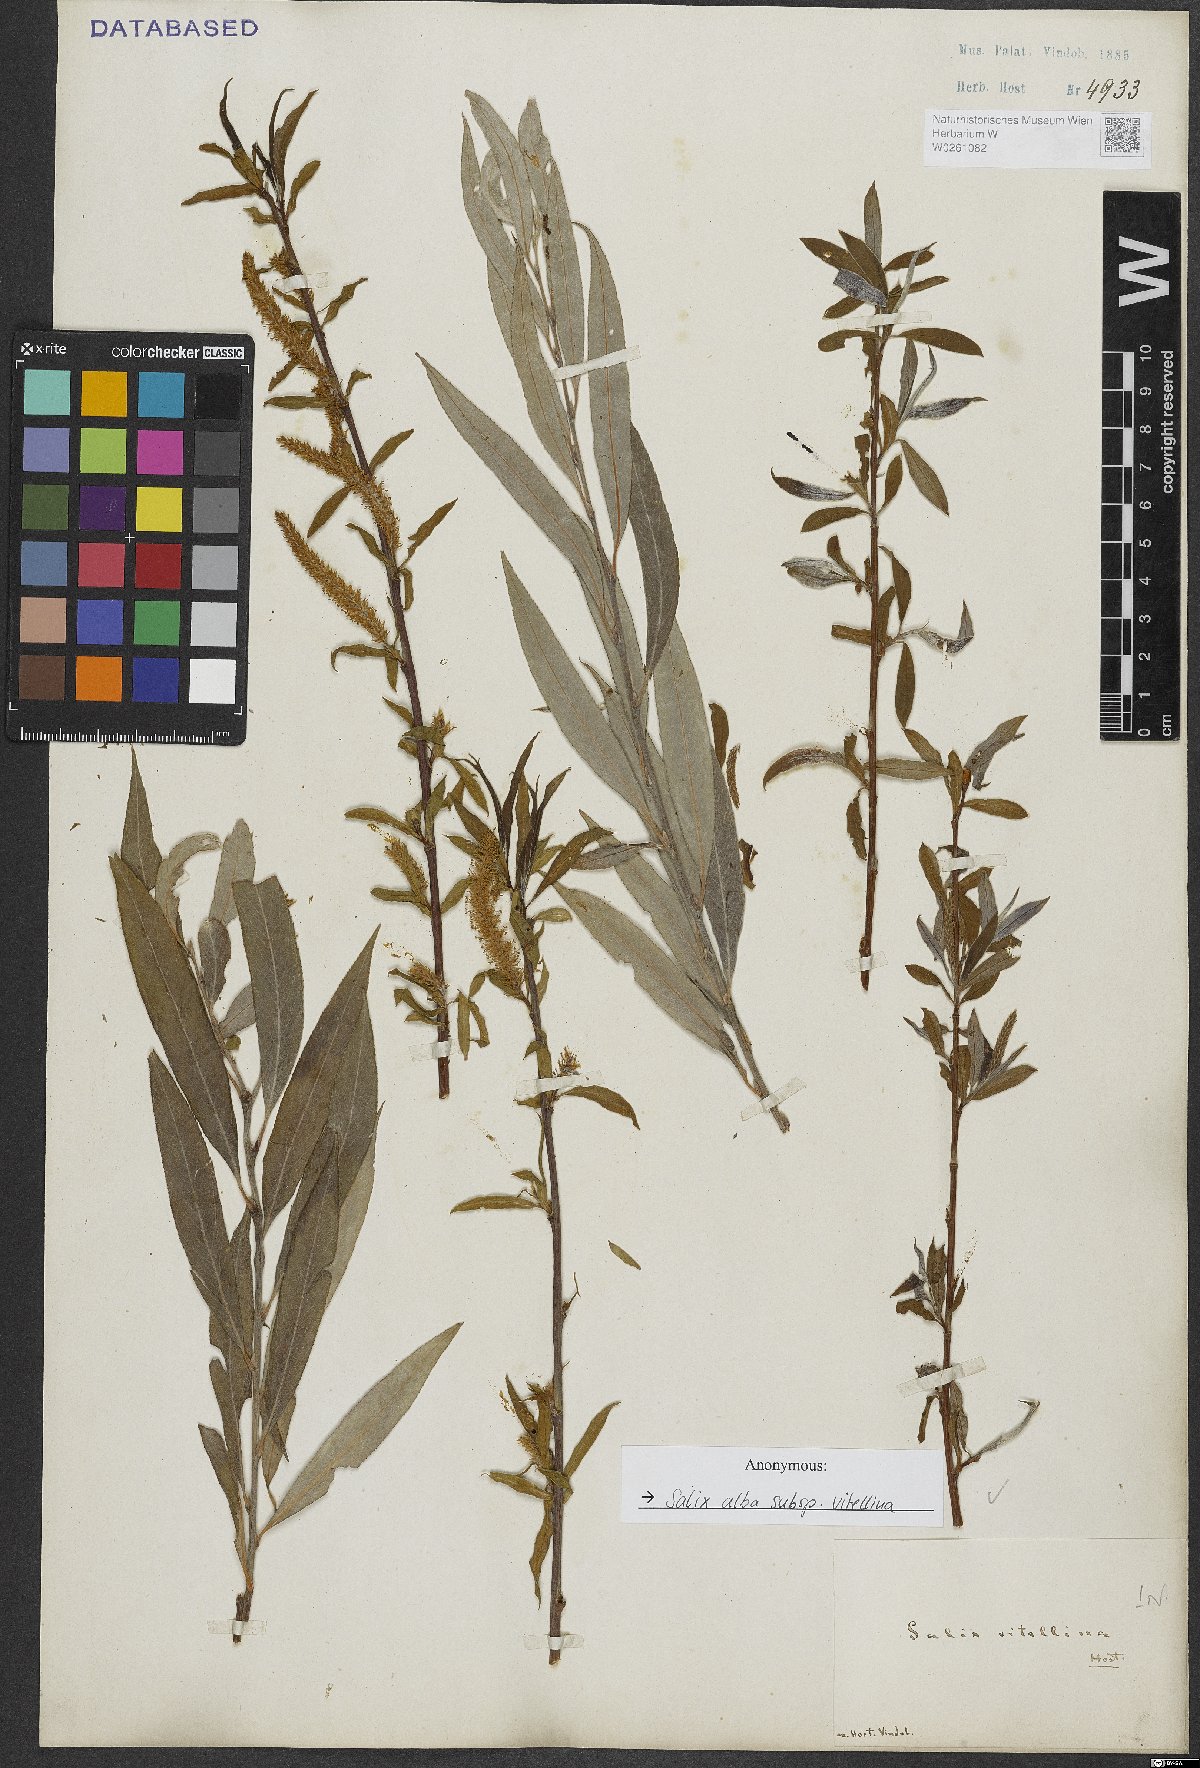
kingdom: Plantae
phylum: Tracheophyta
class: Magnoliopsida
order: Malpighiales
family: Salicaceae
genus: Salix
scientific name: Salix alba
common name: White willow
